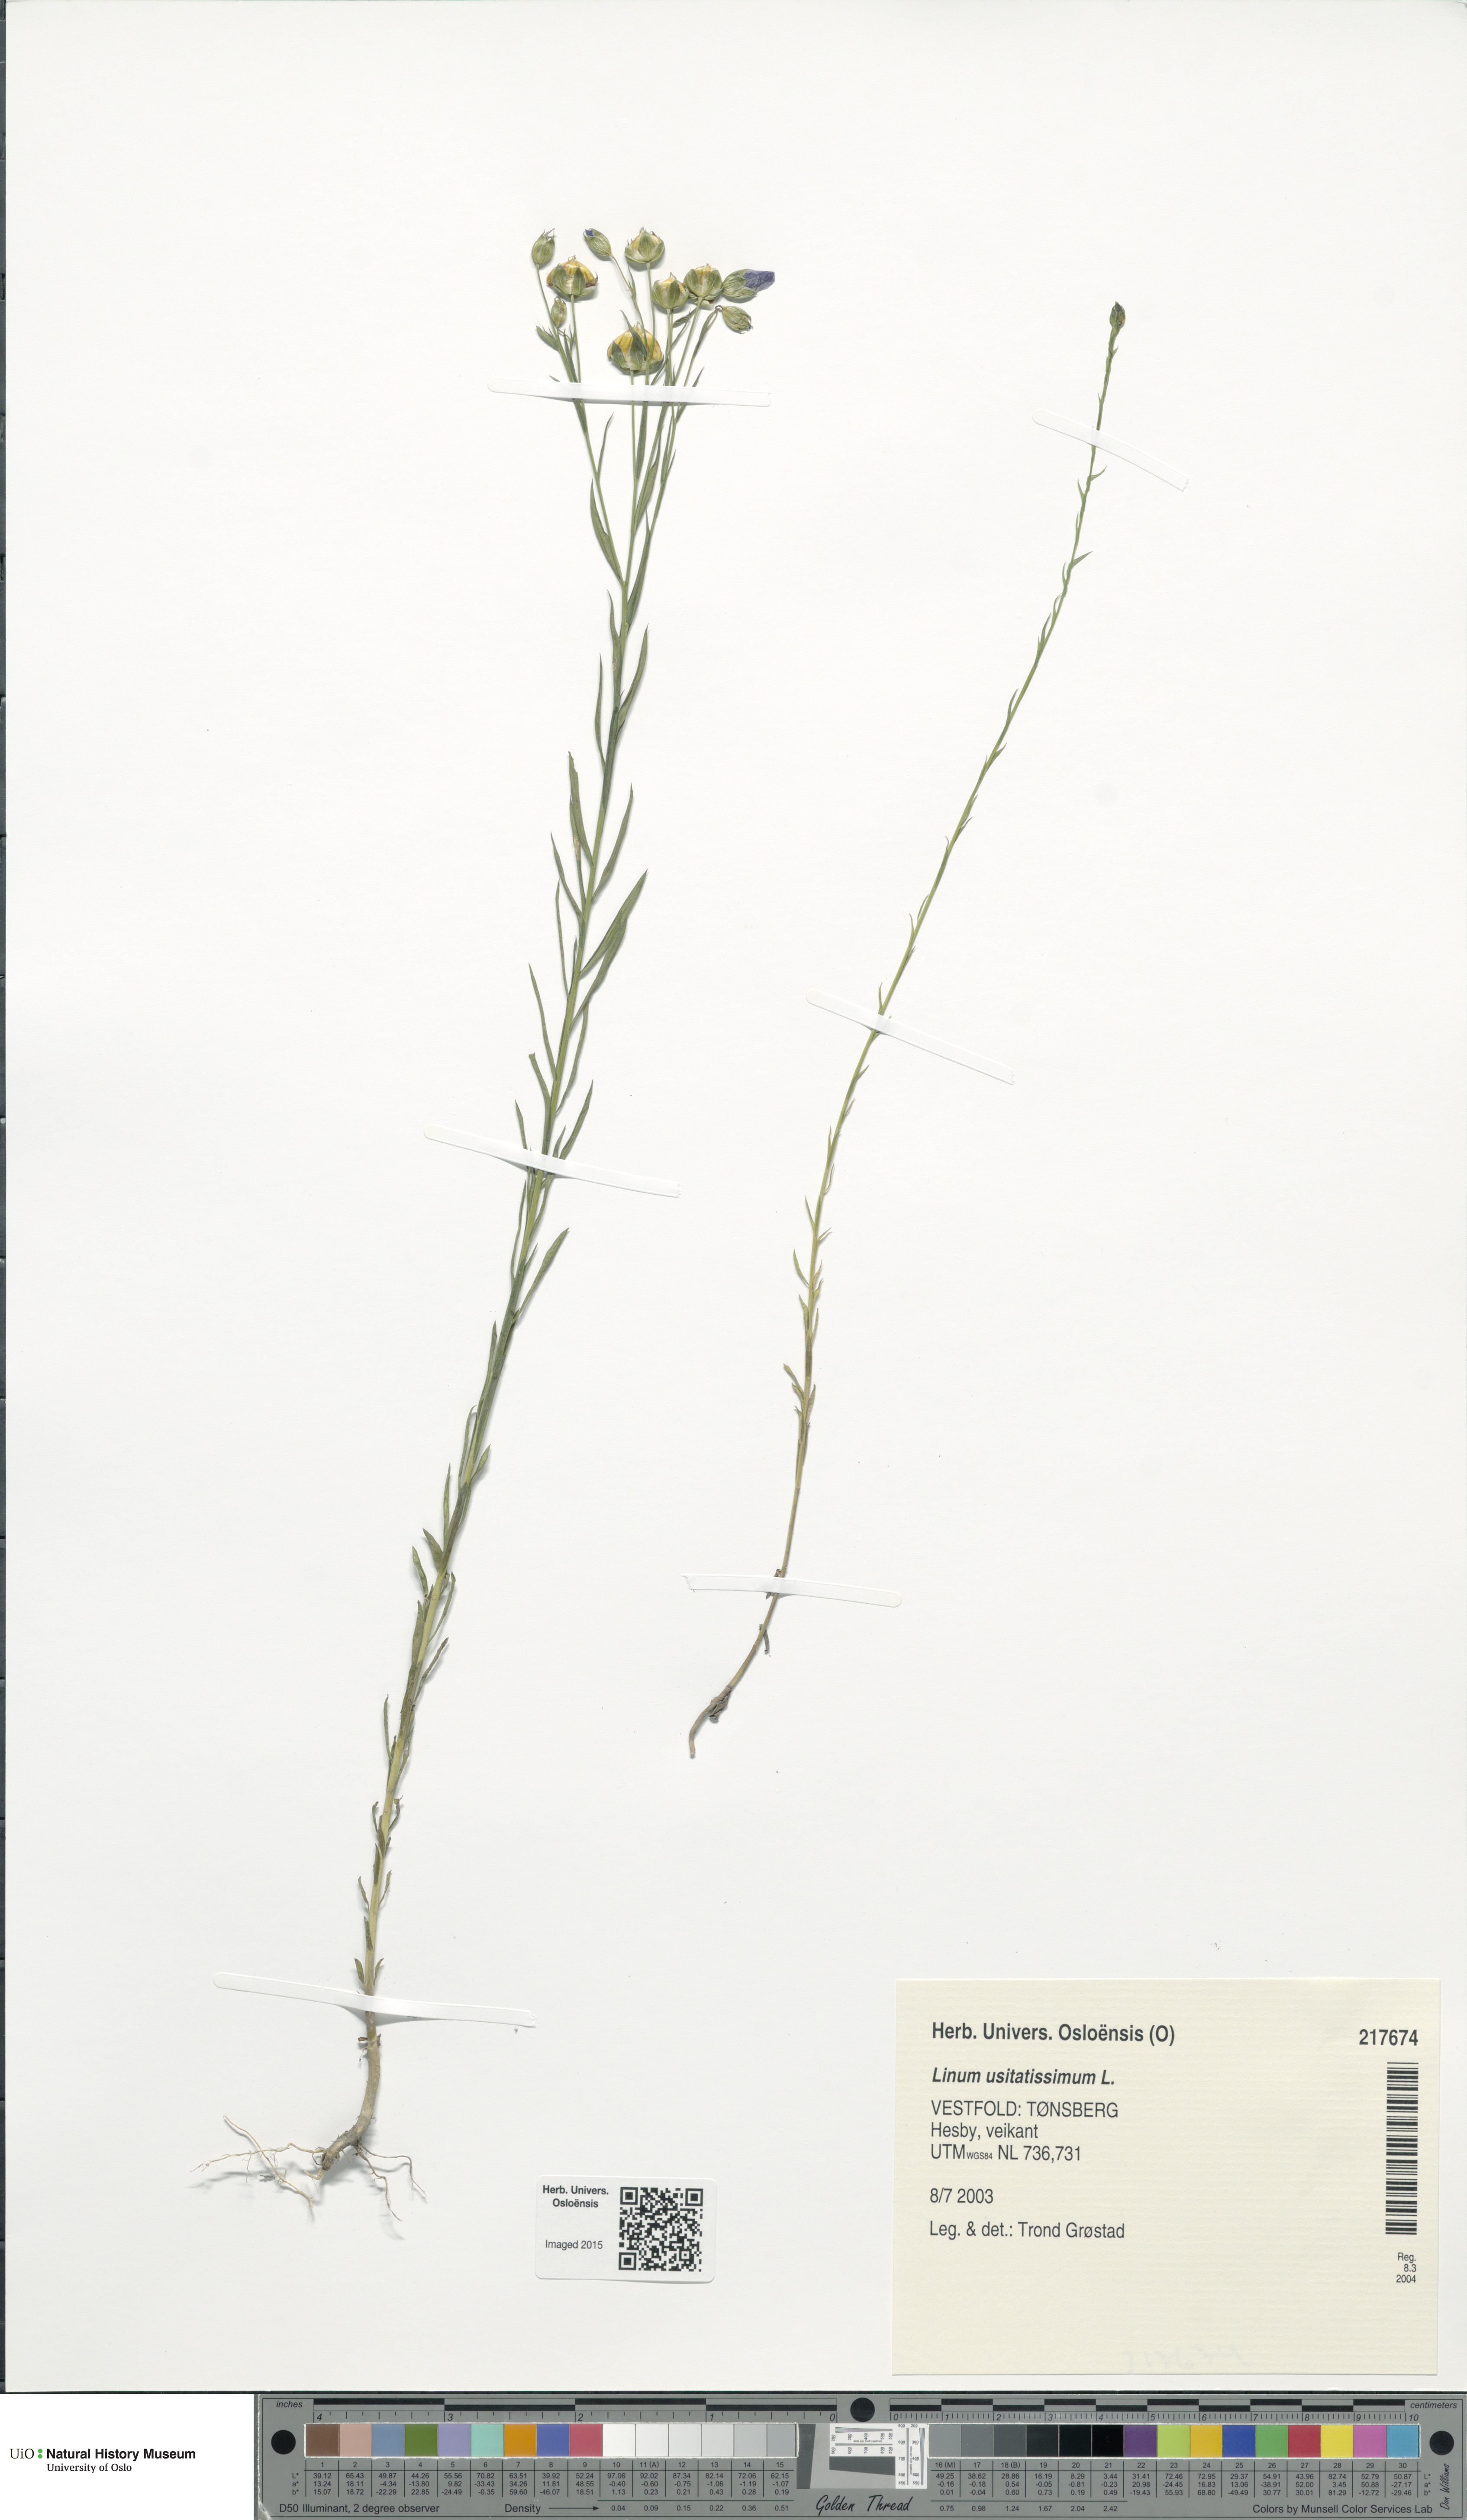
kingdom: Plantae
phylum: Tracheophyta
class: Magnoliopsida
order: Malpighiales
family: Linaceae
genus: Linum
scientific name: Linum usitatissimum
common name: Flax
